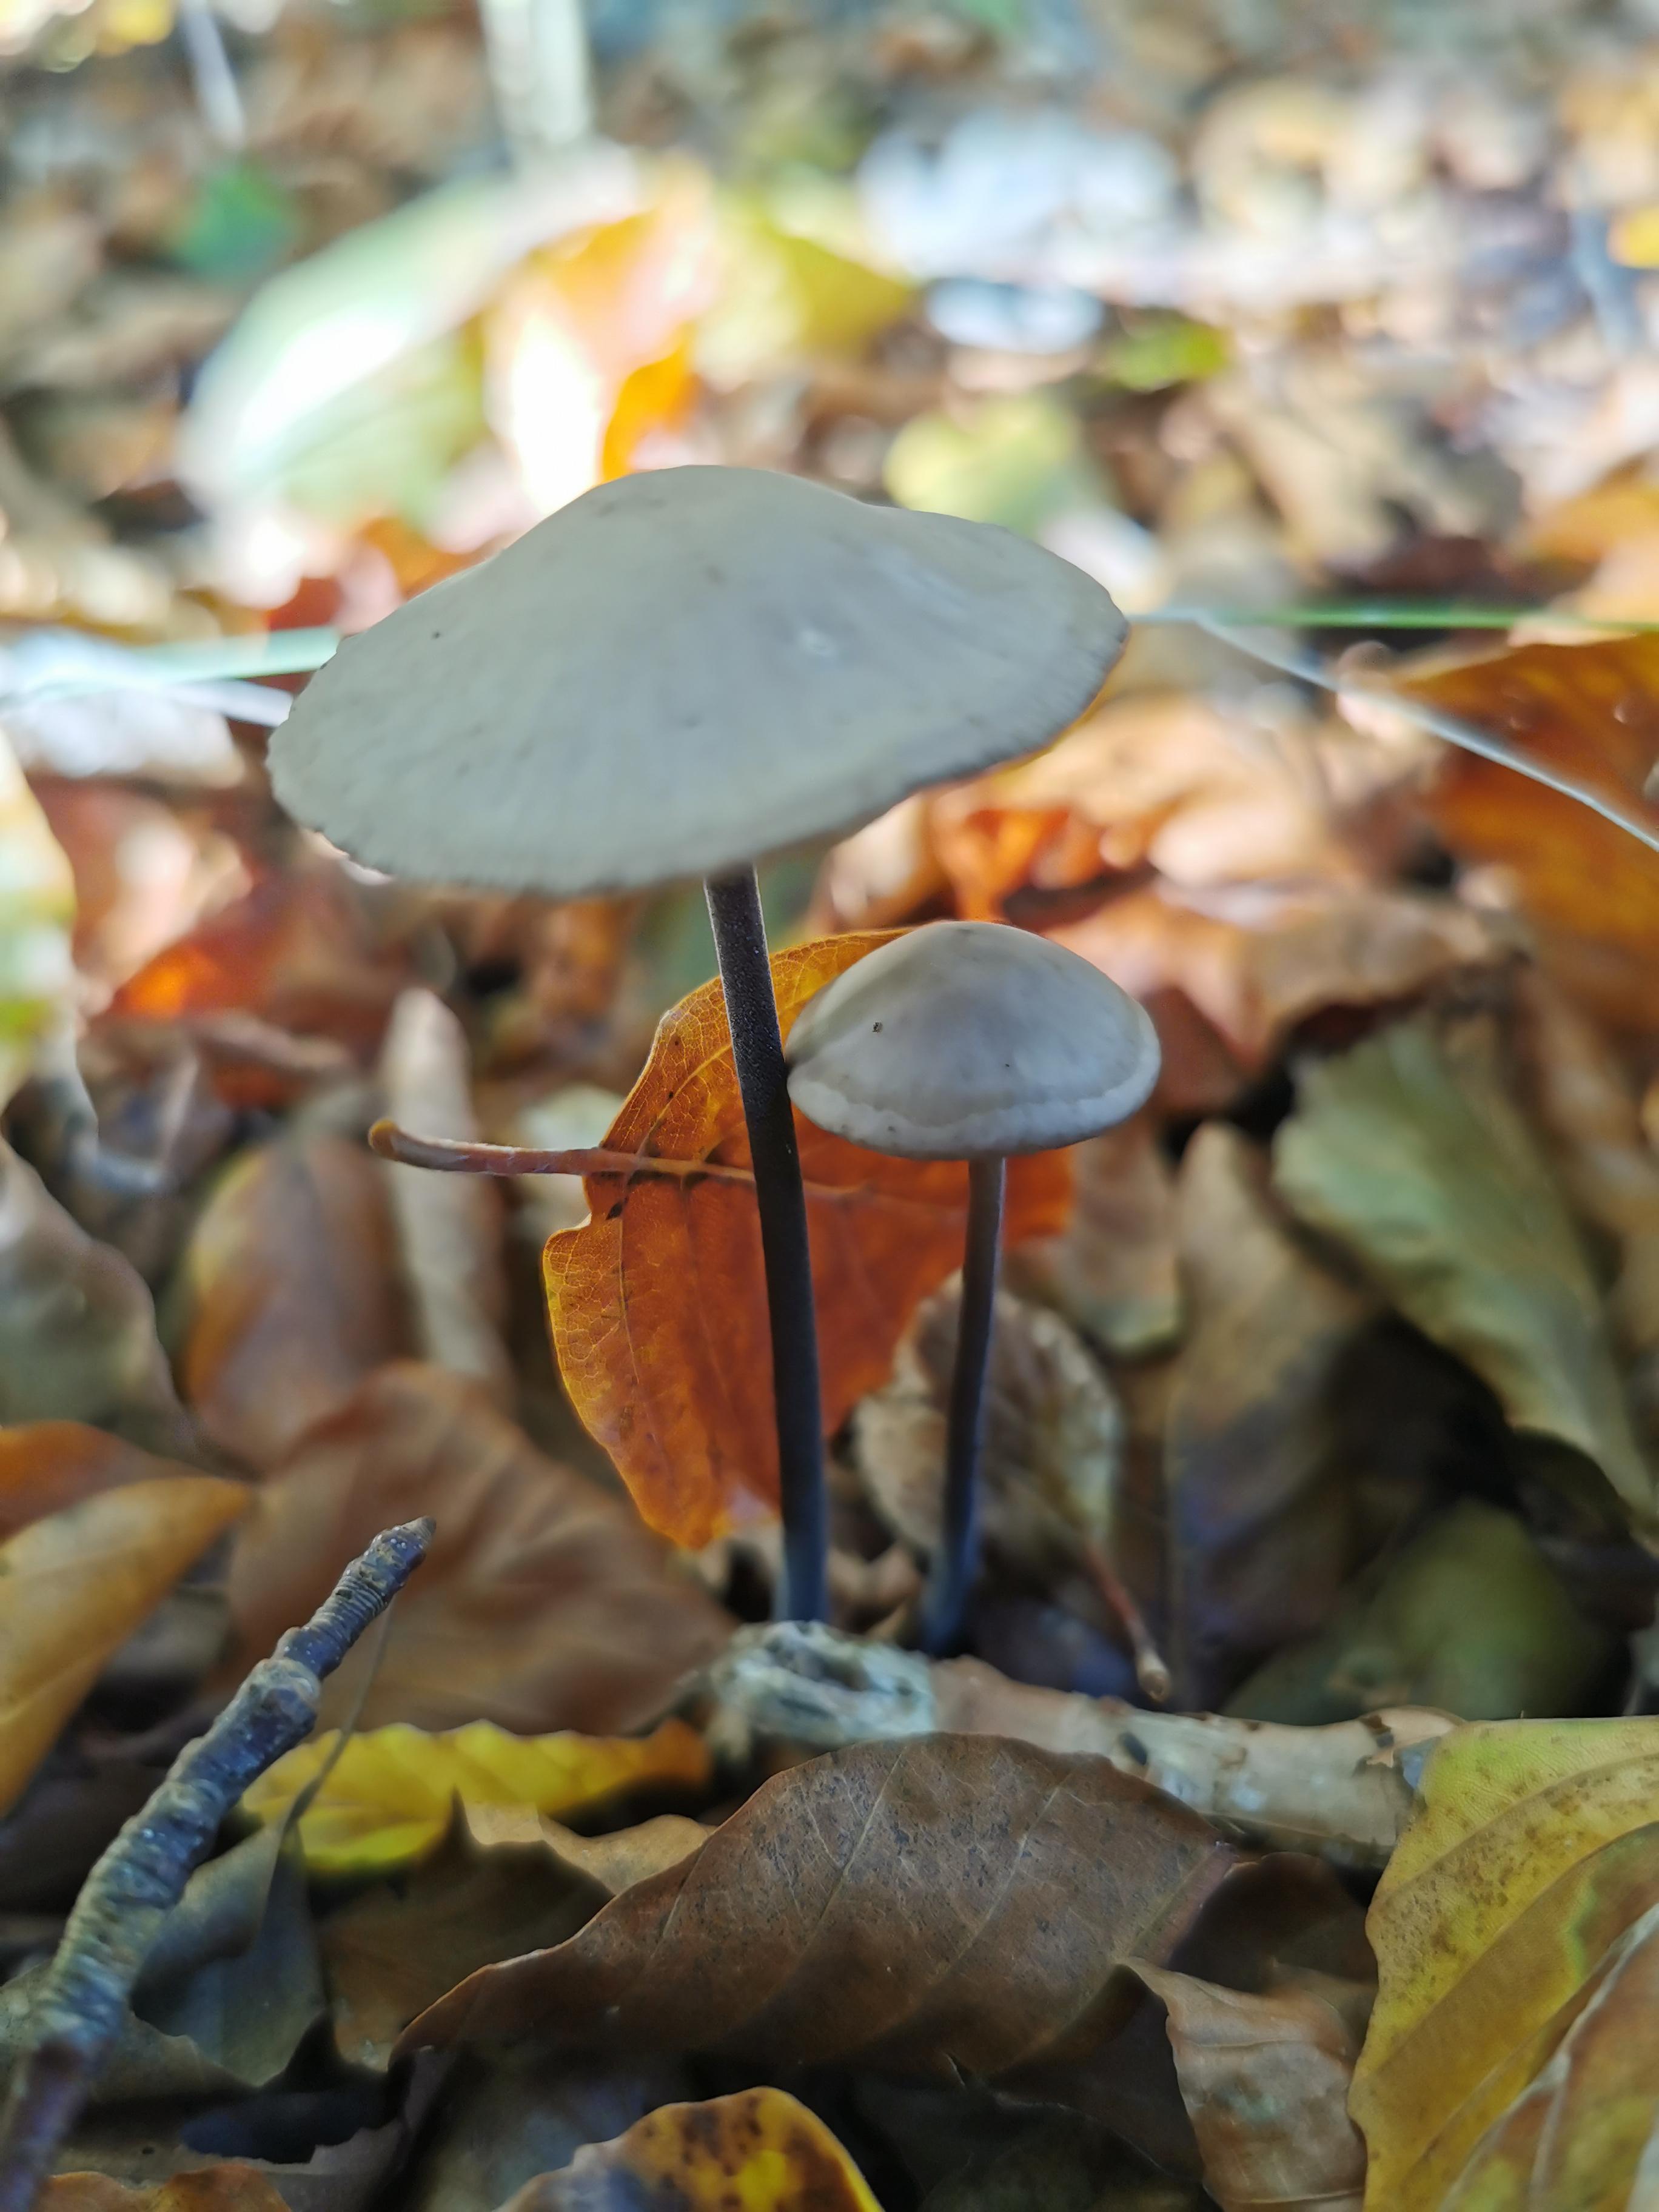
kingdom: Fungi
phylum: Basidiomycota
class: Agaricomycetes
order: Agaricales
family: Omphalotaceae
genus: Mycetinis
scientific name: Mycetinis alliaceus
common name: stor løghat
